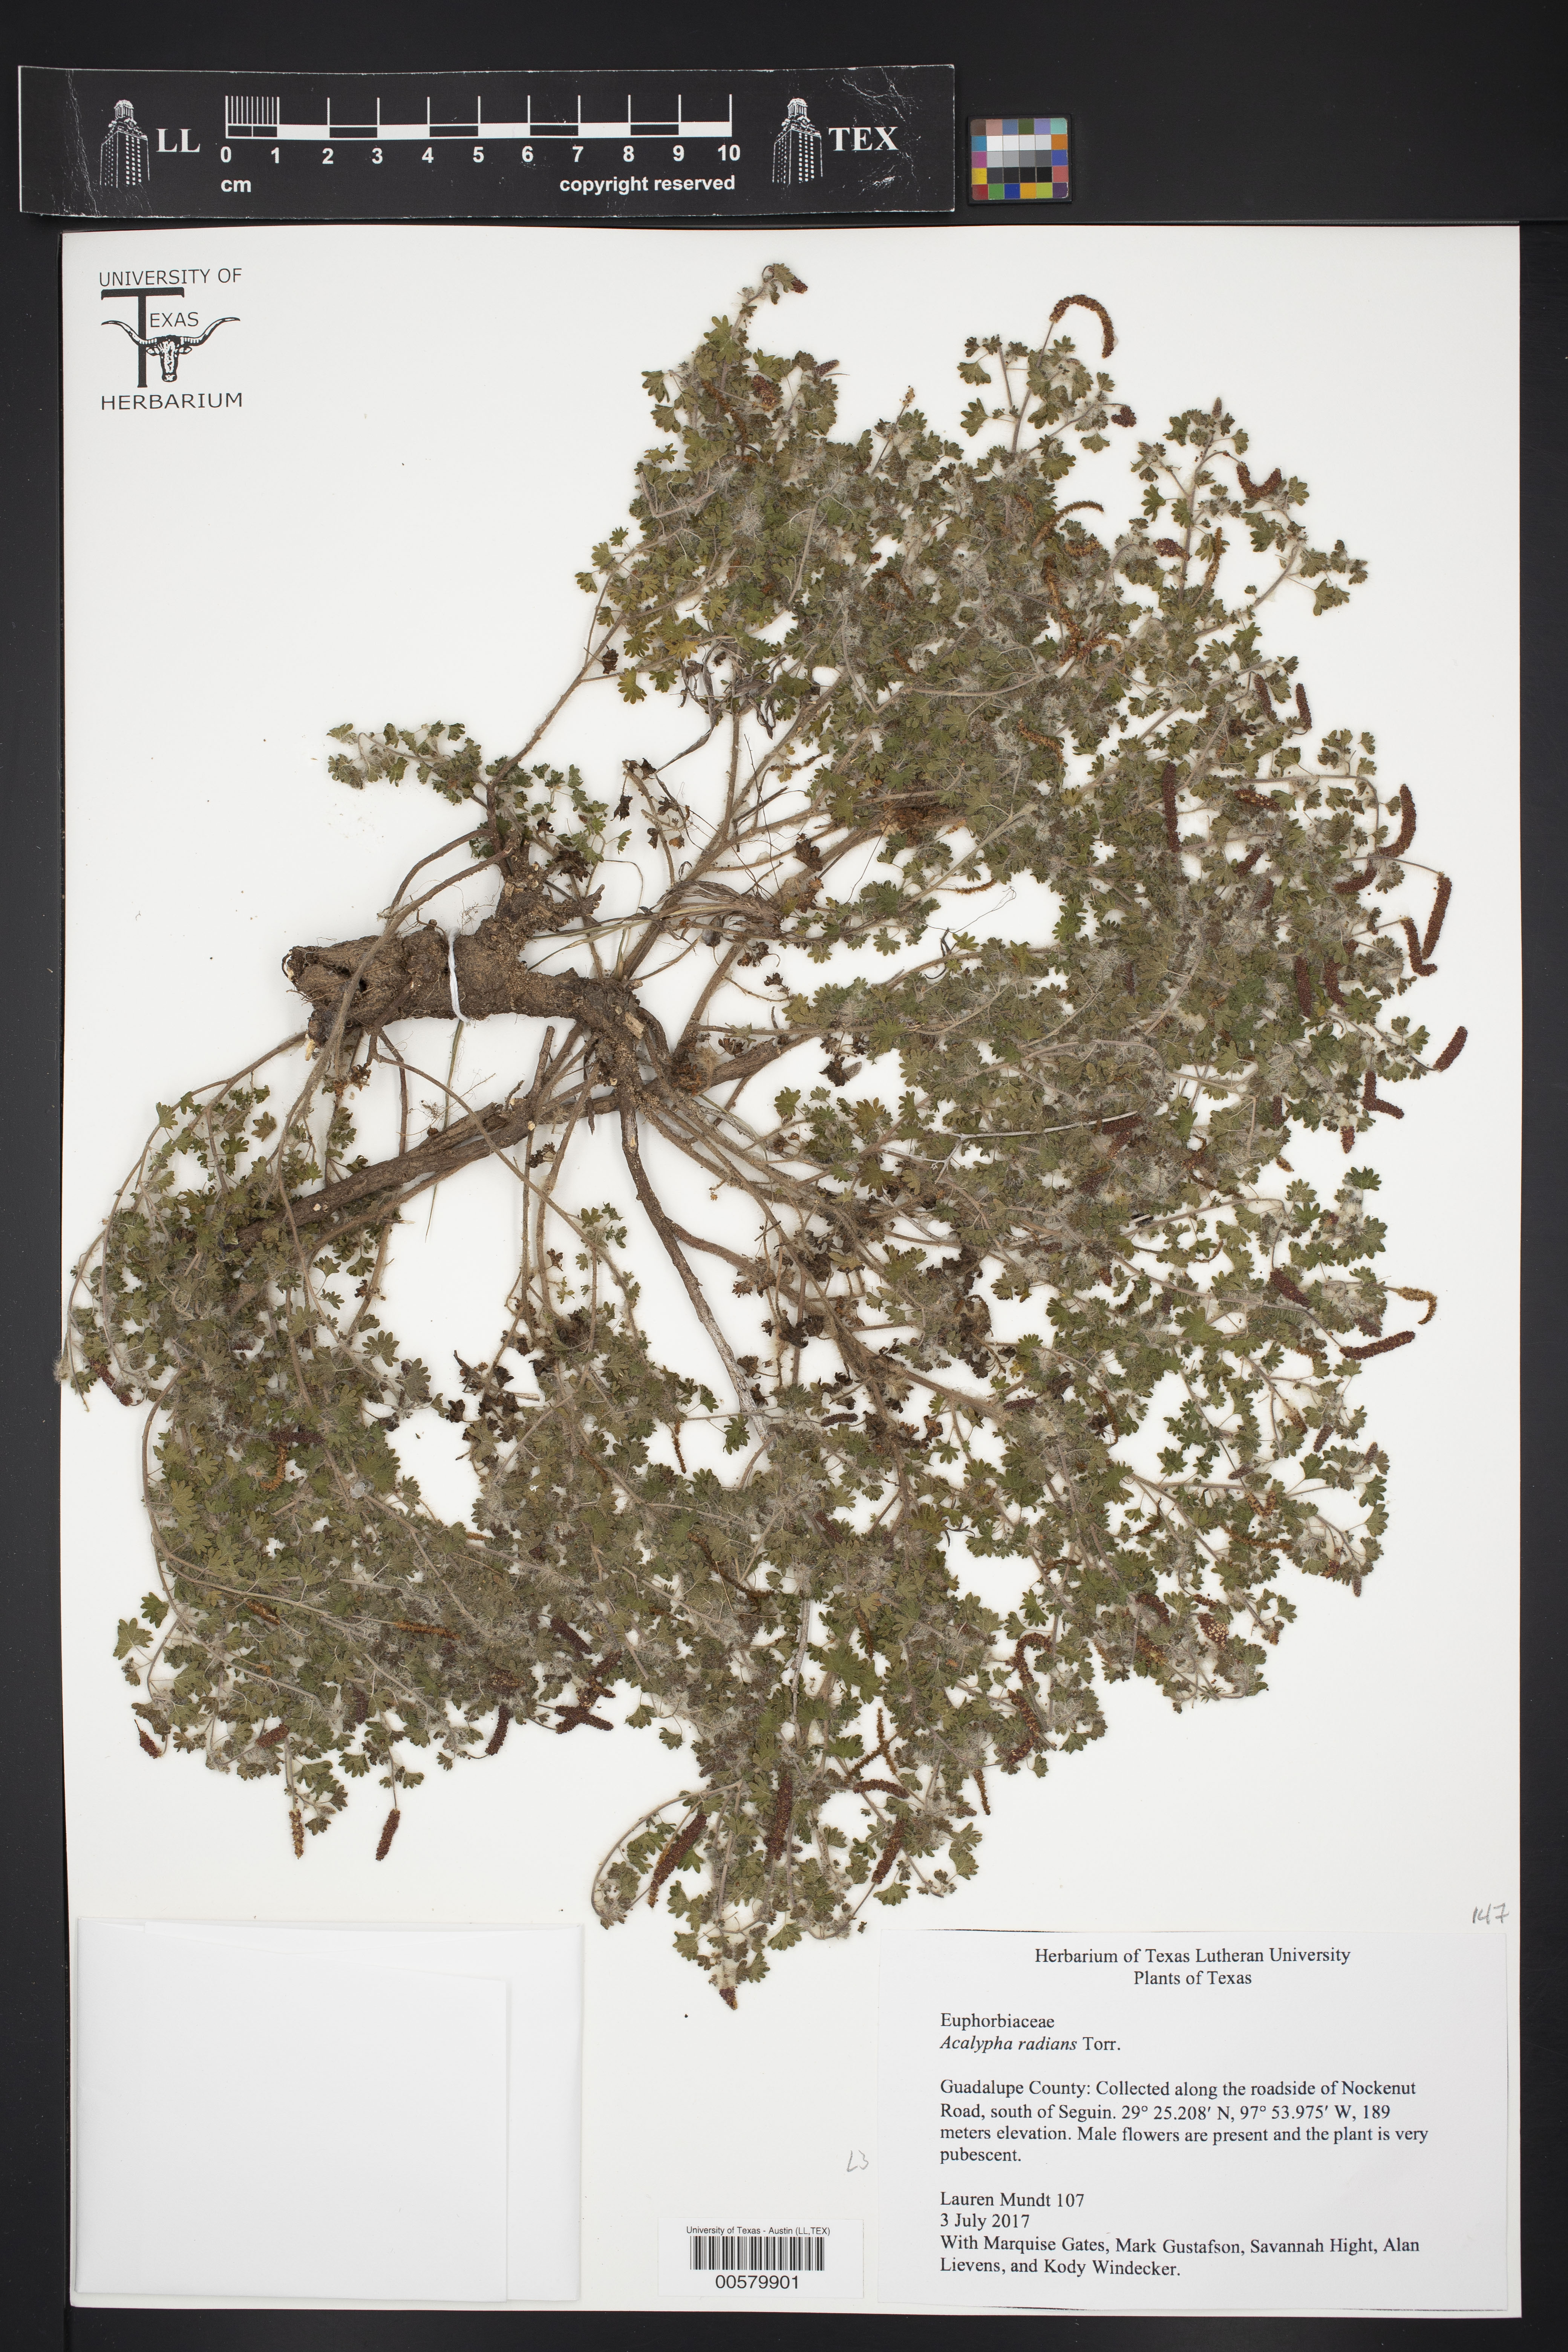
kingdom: Plantae
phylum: Tracheophyta
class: Magnoliopsida
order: Malpighiales
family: Euphorbiaceae
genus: Acalypha
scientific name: Acalypha radians
